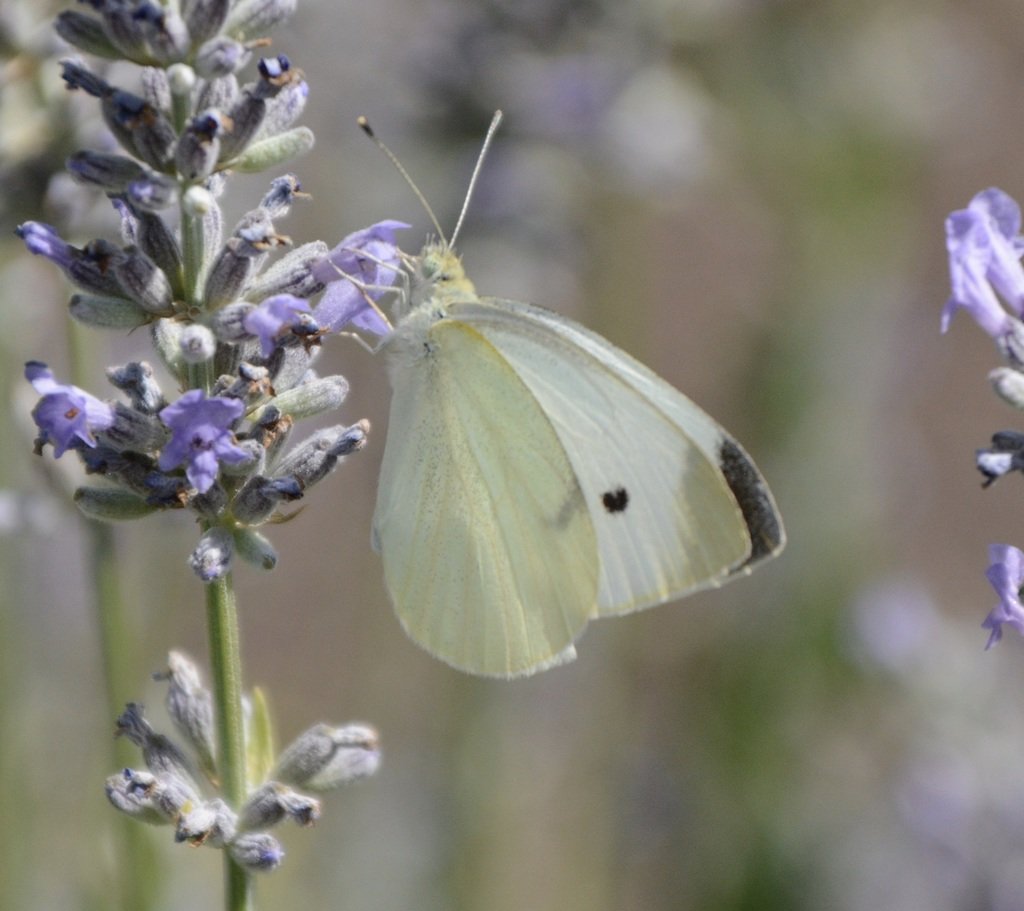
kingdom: Animalia
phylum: Arthropoda
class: Insecta
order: Lepidoptera
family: Pieridae
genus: Pieris
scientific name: Pieris rapae
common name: Cabbage White
